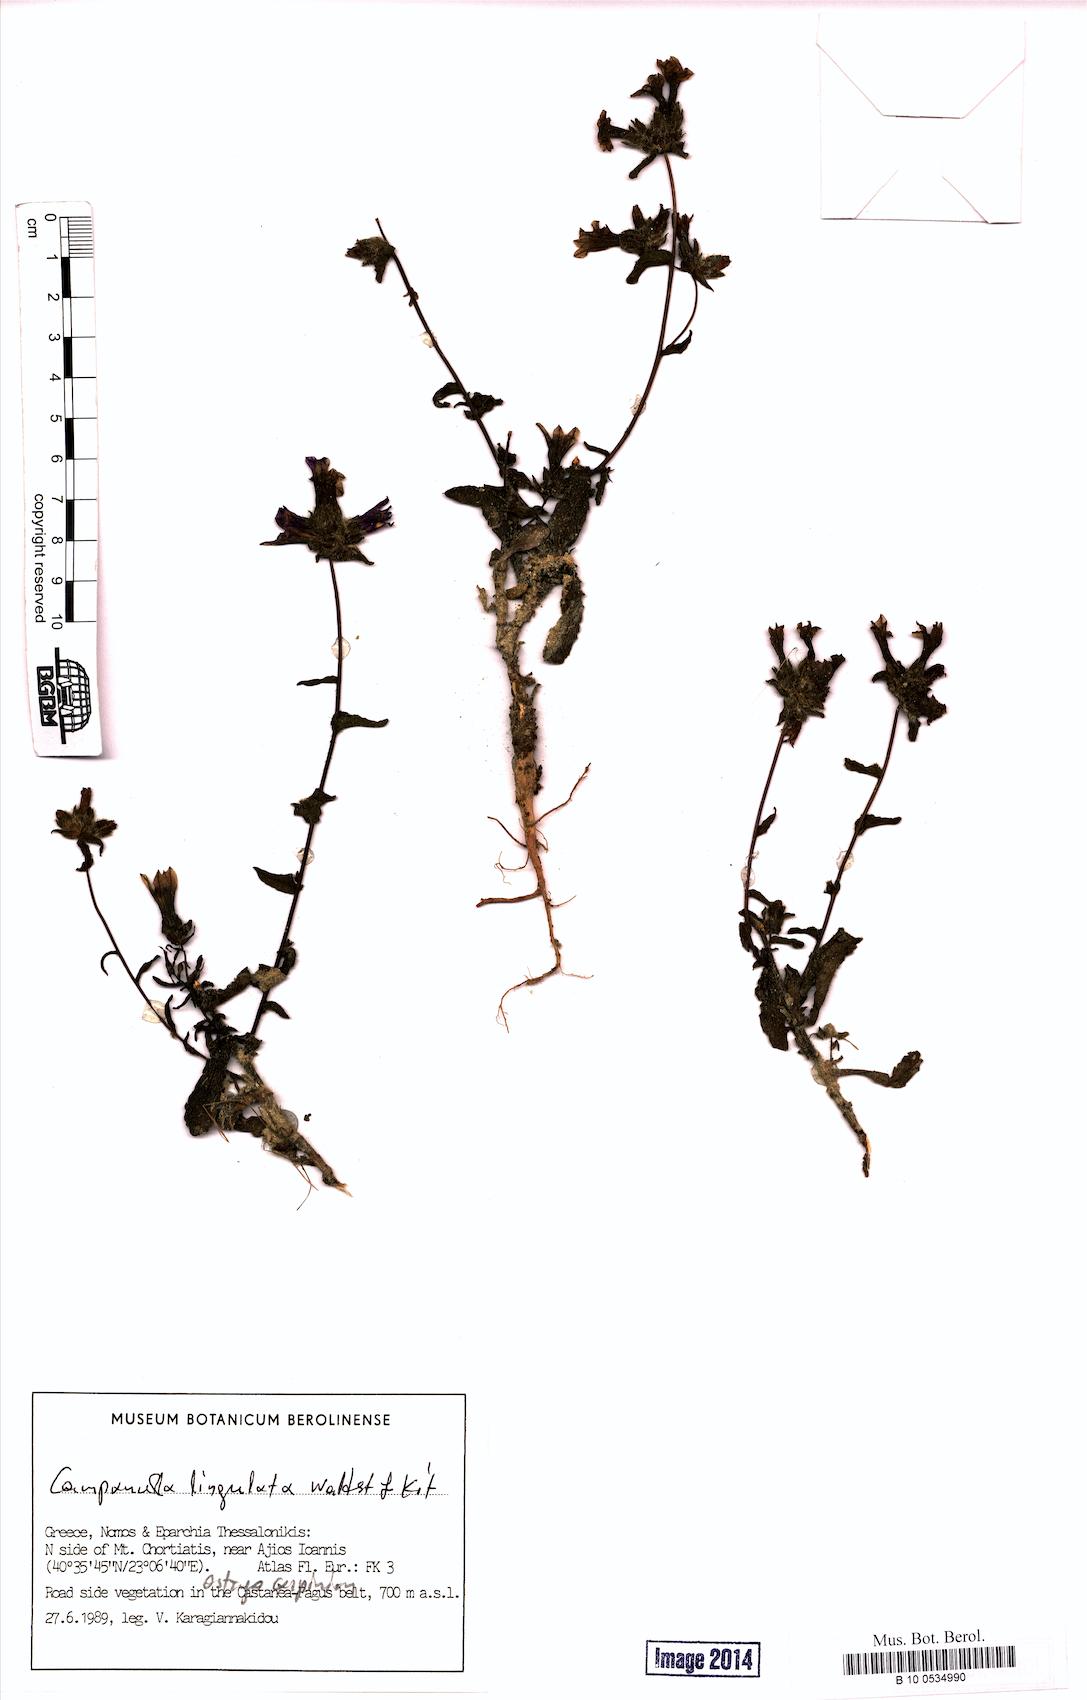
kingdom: Plantae
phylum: Tracheophyta
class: Magnoliopsida
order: Asterales
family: Campanulaceae
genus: Campanula
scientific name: Campanula lingulata
